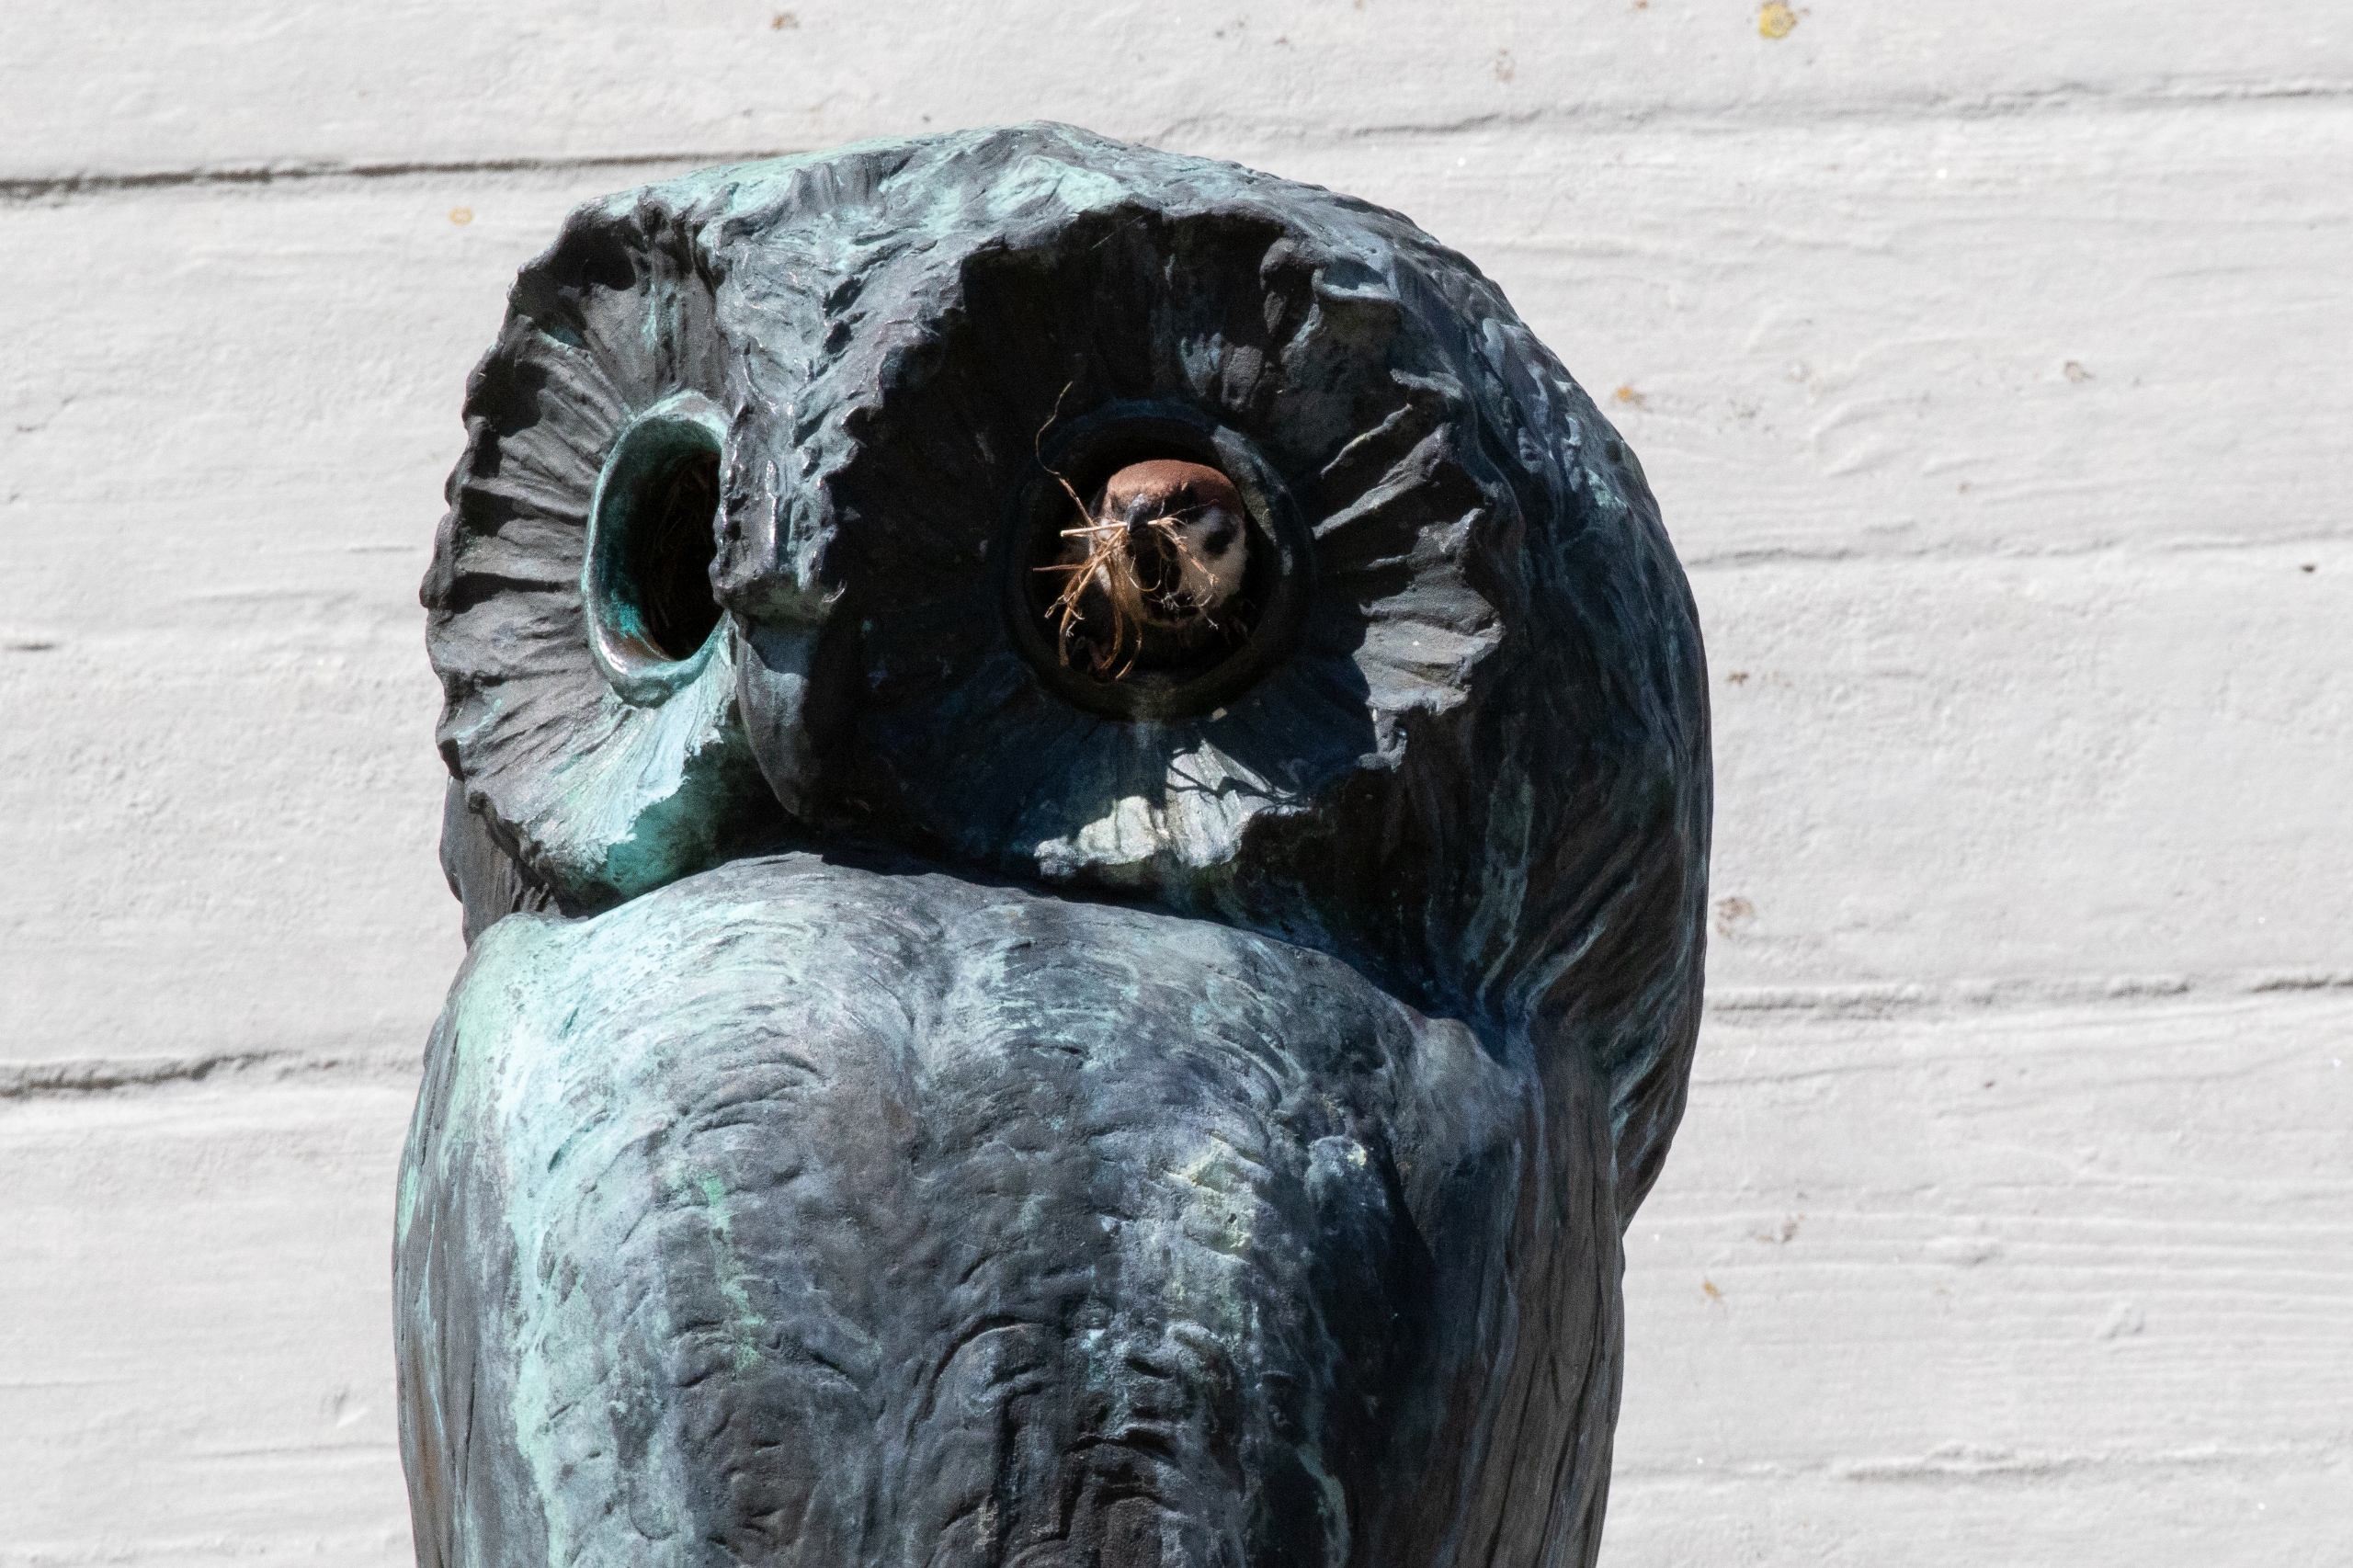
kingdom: Animalia
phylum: Chordata
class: Aves
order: Passeriformes
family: Passeridae
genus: Passer
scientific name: Passer montanus
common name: Skovspurv
